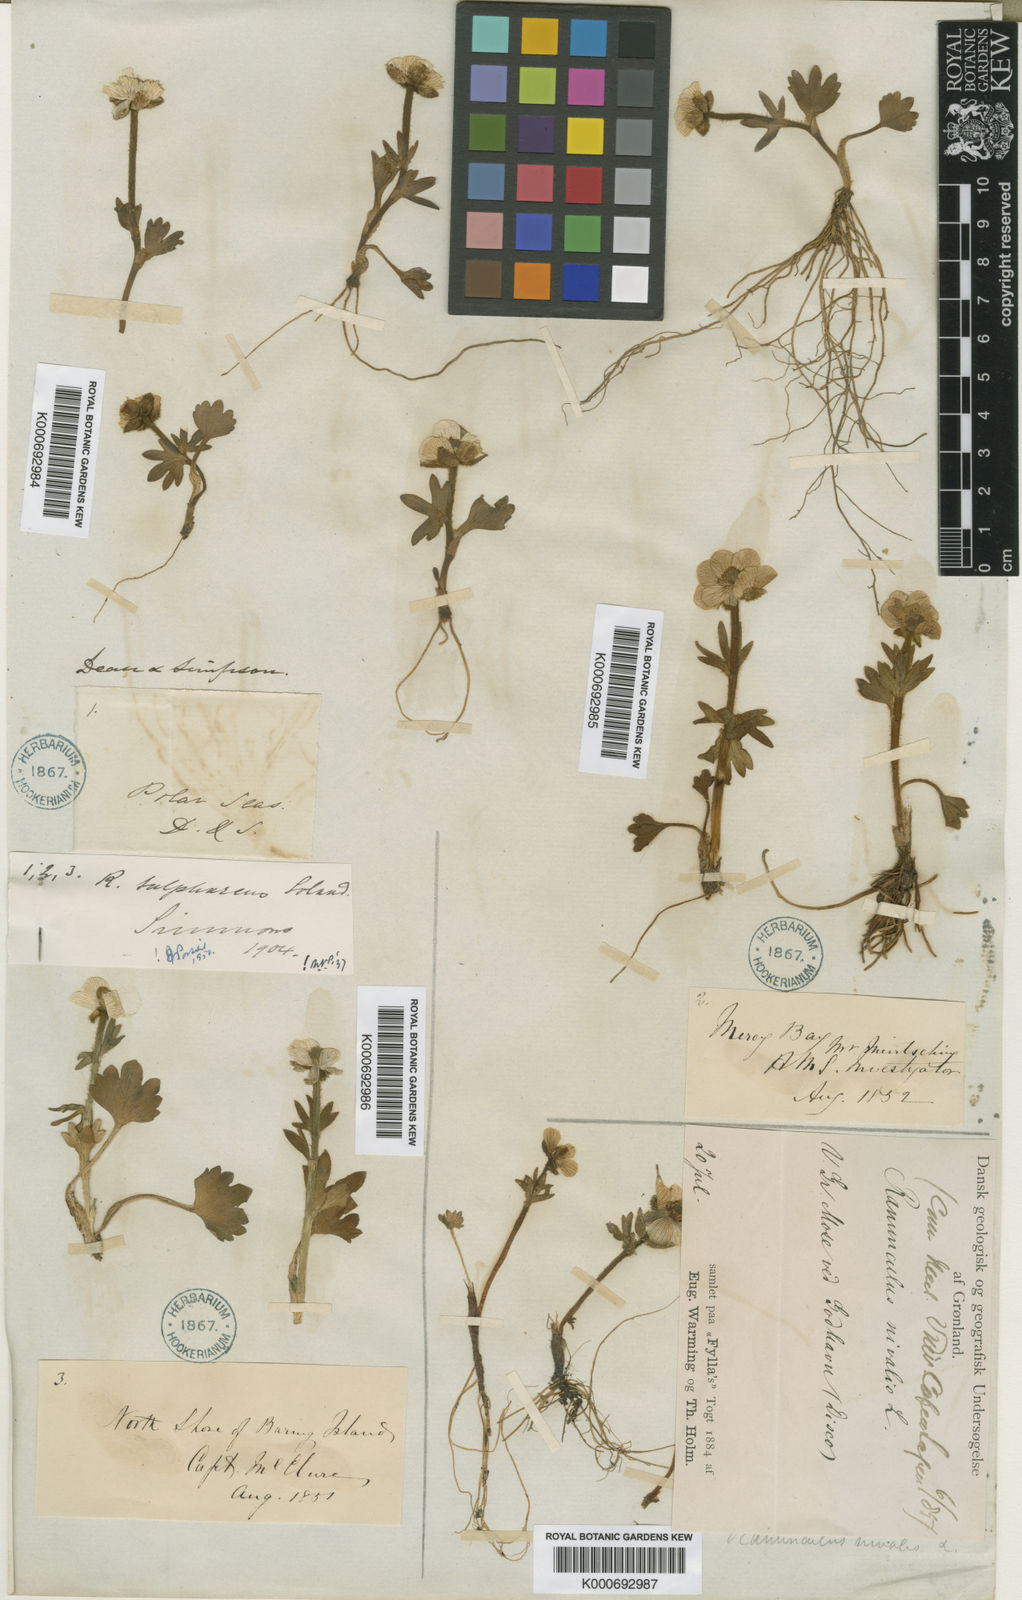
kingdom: Plantae
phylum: Tracheophyta
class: Magnoliopsida
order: Ranunculales
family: Ranunculaceae
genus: Ranunculus
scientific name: Ranunculus nivalis
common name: Snow buttercup
